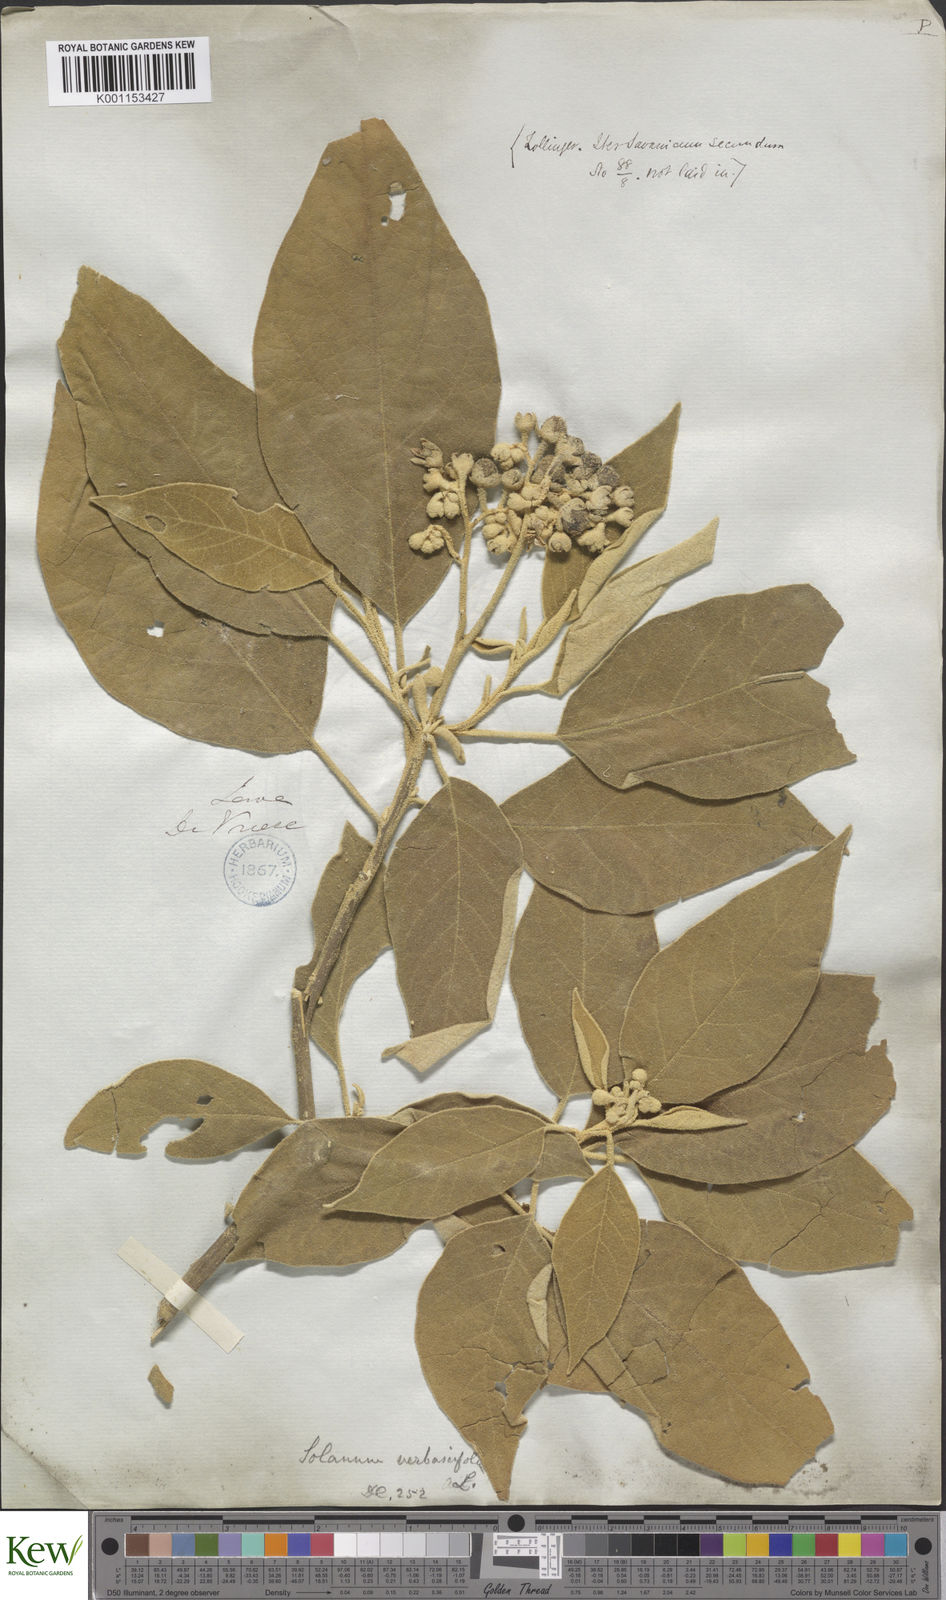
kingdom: Plantae
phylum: Tracheophyta
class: Magnoliopsida
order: Solanales
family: Solanaceae
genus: Solanum
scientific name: Solanum donianum
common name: Mullein nightshade
